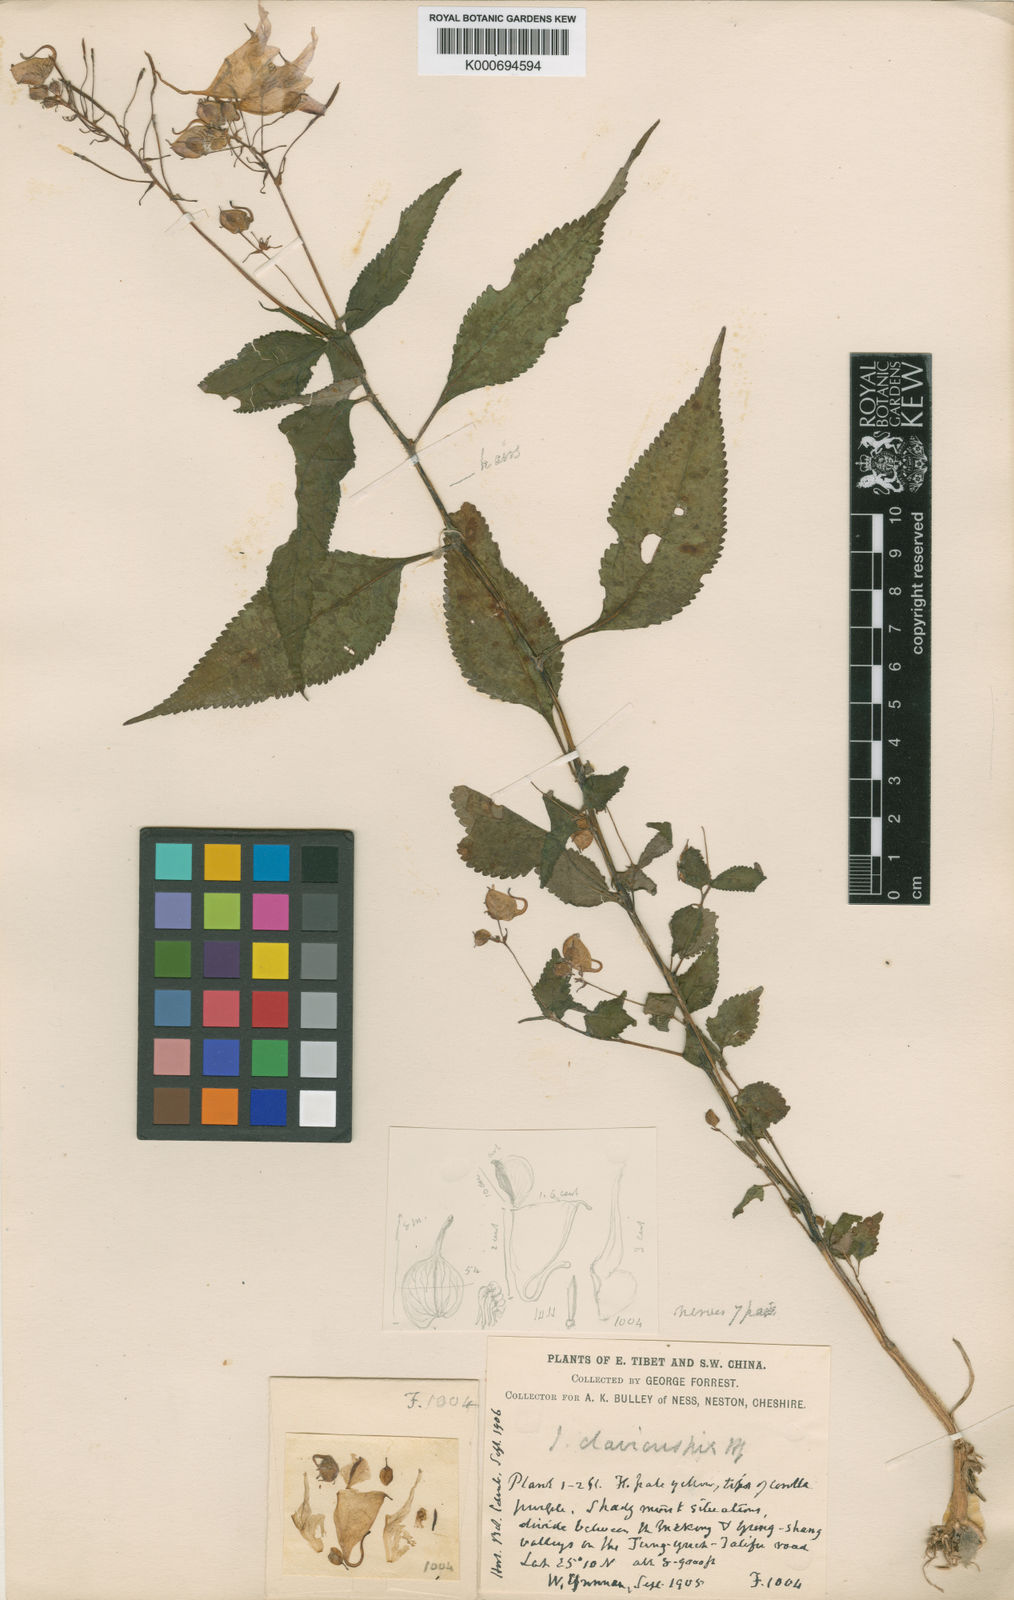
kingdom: Plantae
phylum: Tracheophyta
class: Magnoliopsida
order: Ericales
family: Balsaminaceae
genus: Impatiens
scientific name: Impatiens clavicuspis
